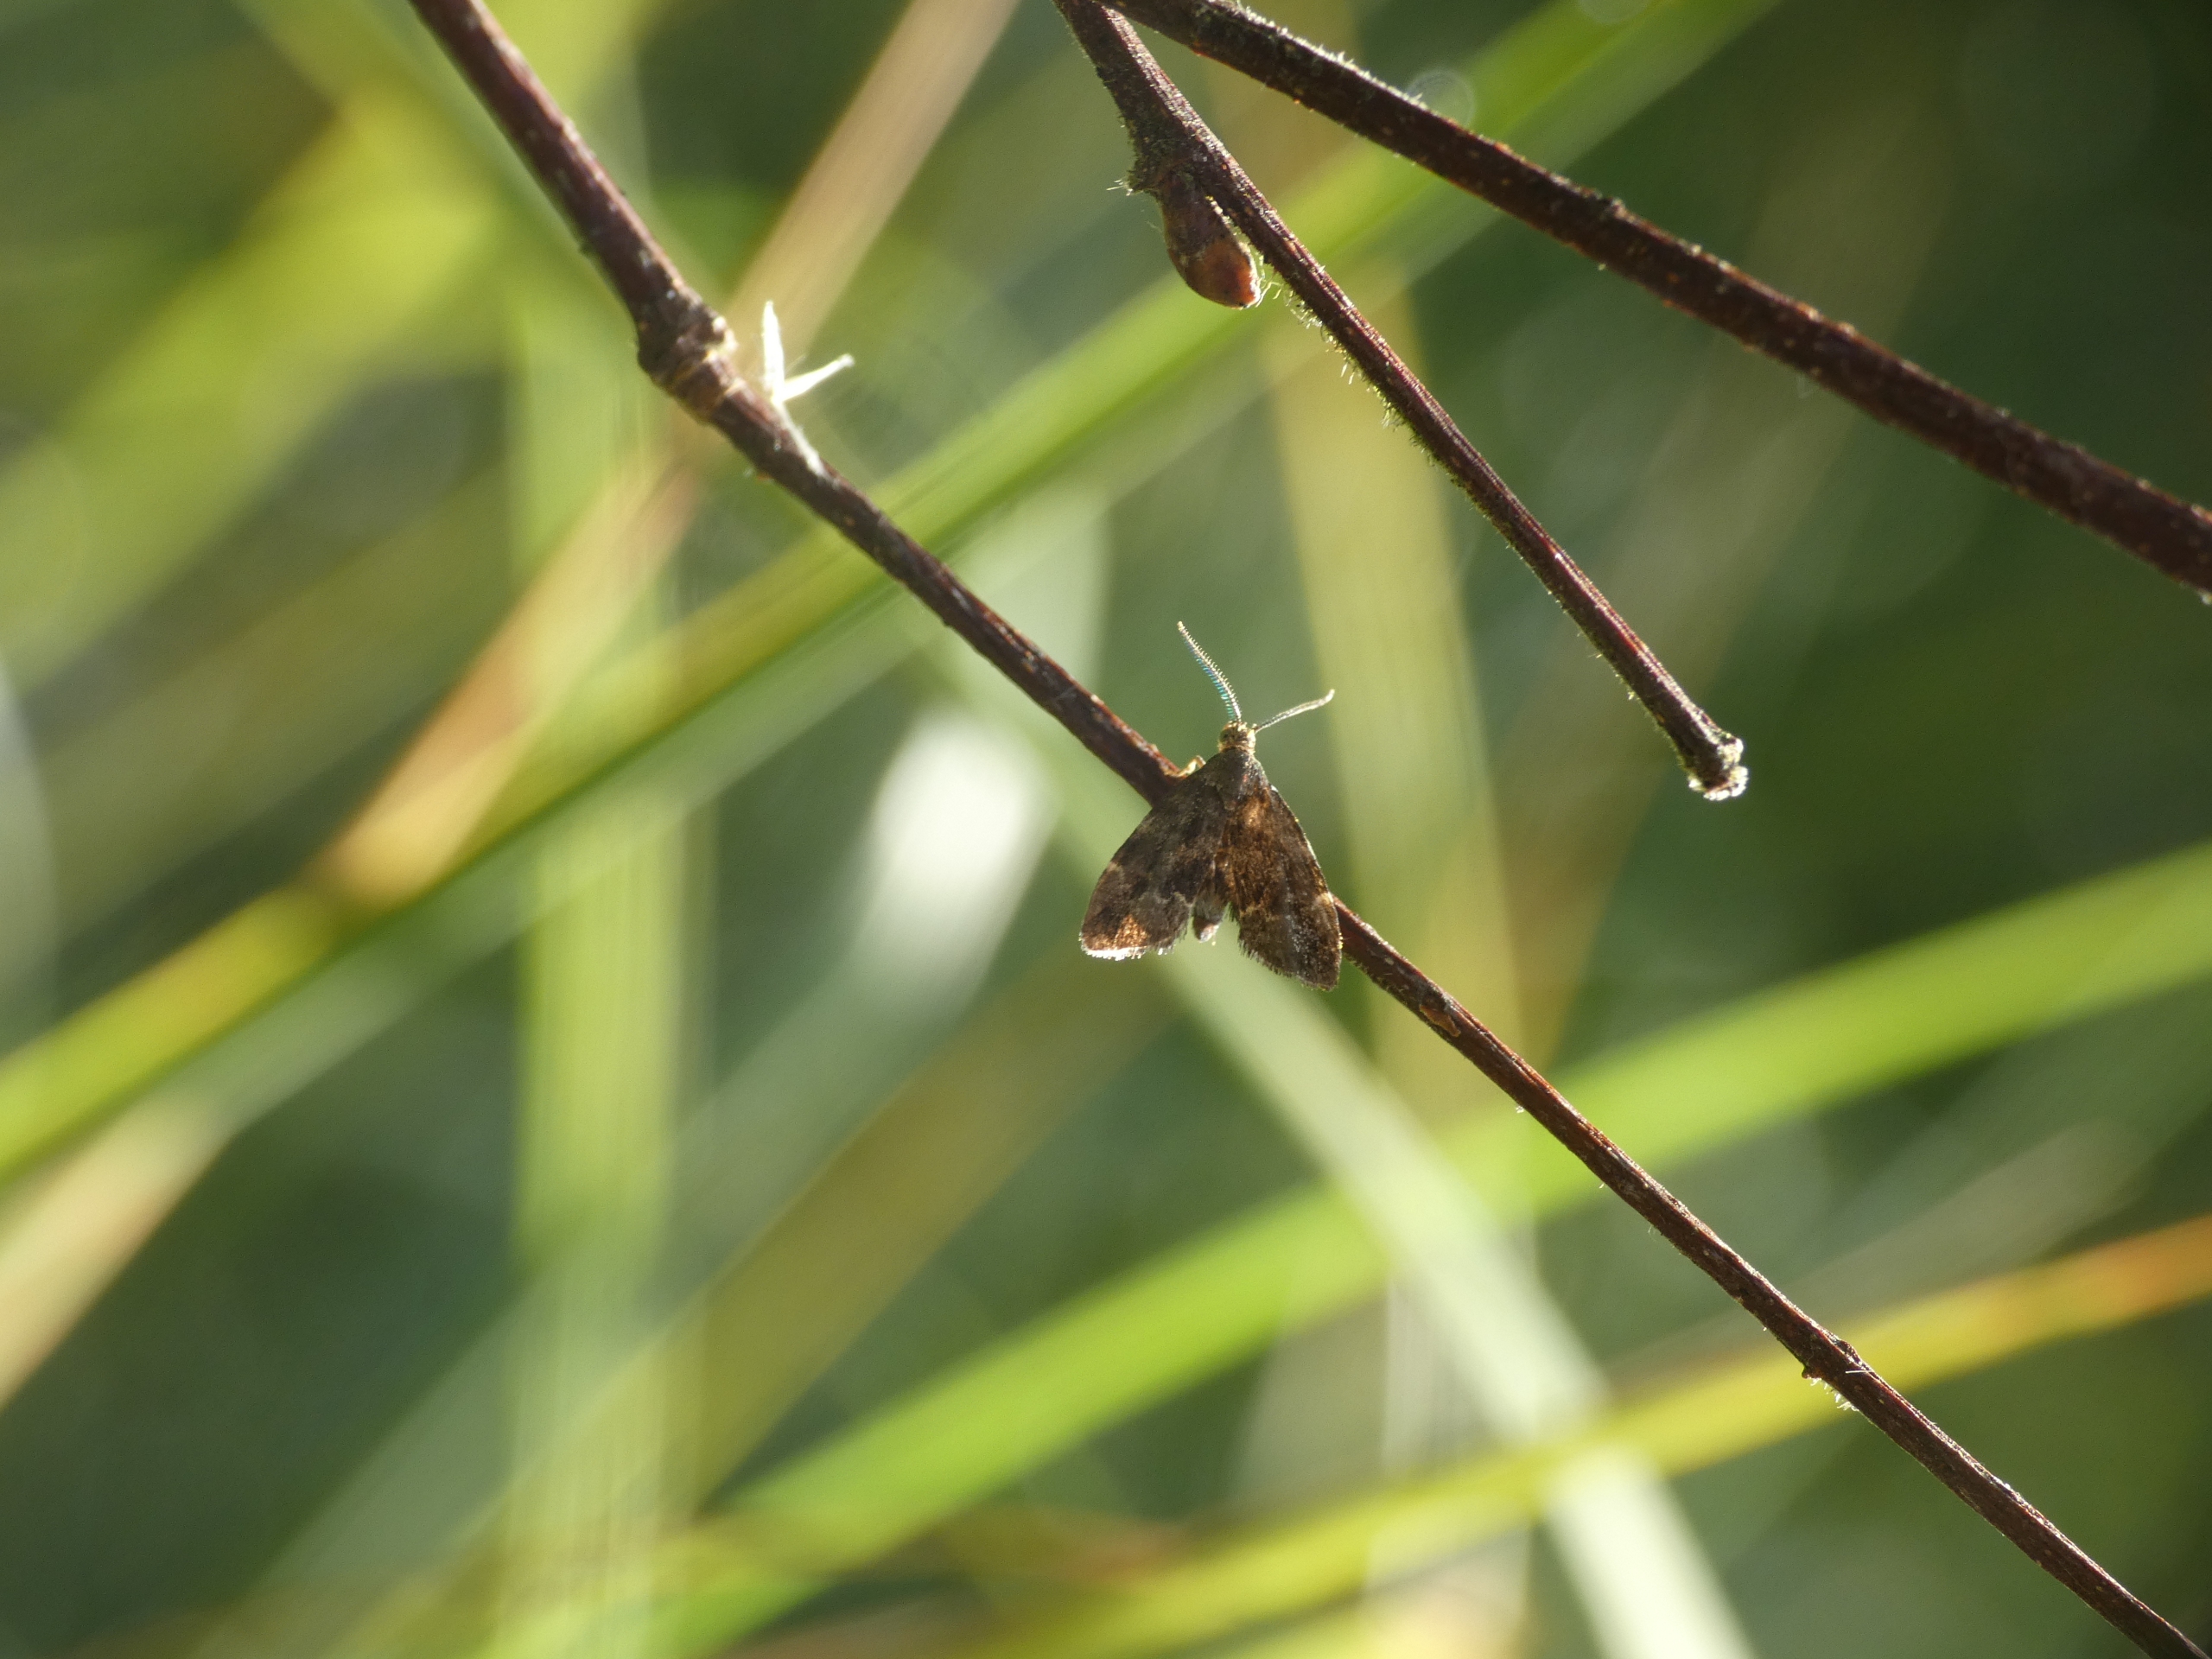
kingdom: Animalia
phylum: Arthropoda
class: Insecta
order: Lepidoptera
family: Choreutidae
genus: Anthophila
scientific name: Anthophila fabriciana
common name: Bredvinget nældevikler
